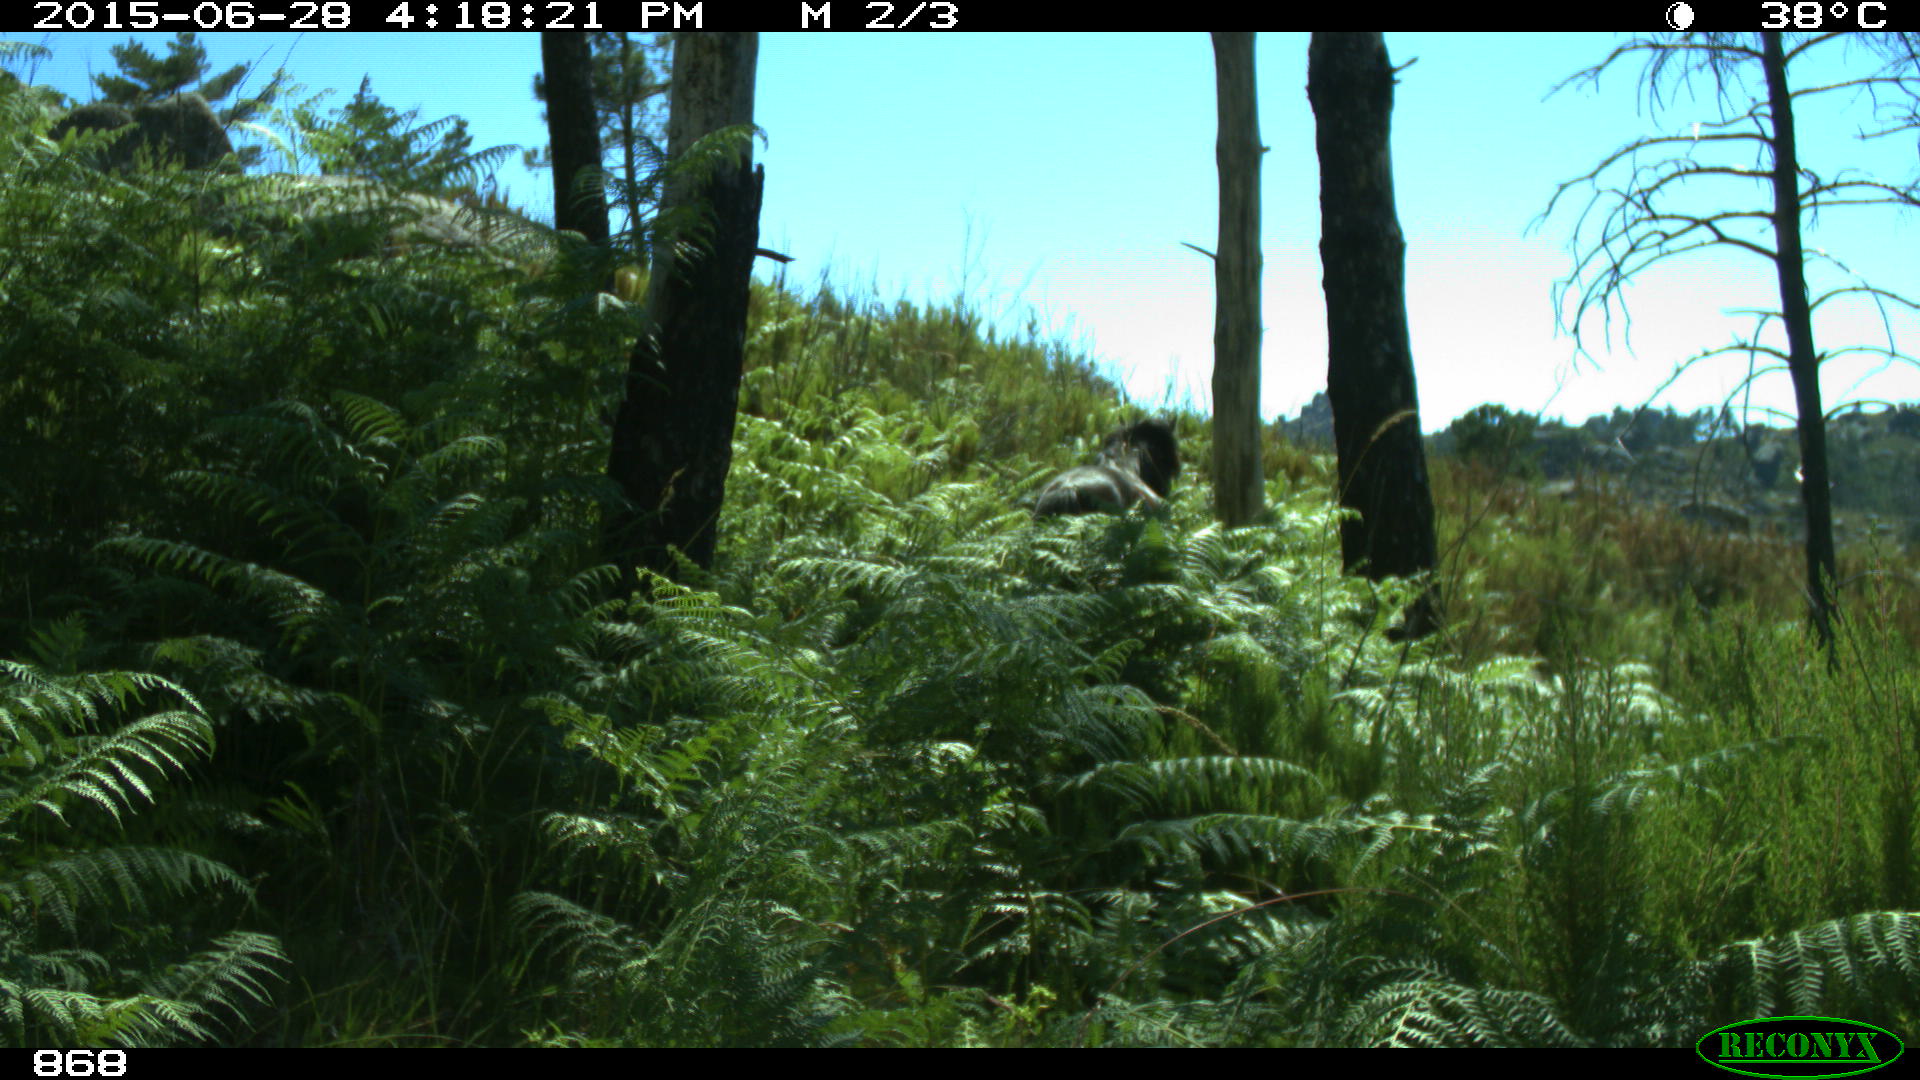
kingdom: Animalia
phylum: Chordata
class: Mammalia
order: Perissodactyla
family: Equidae
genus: Equus
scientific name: Equus caballus
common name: Horse
